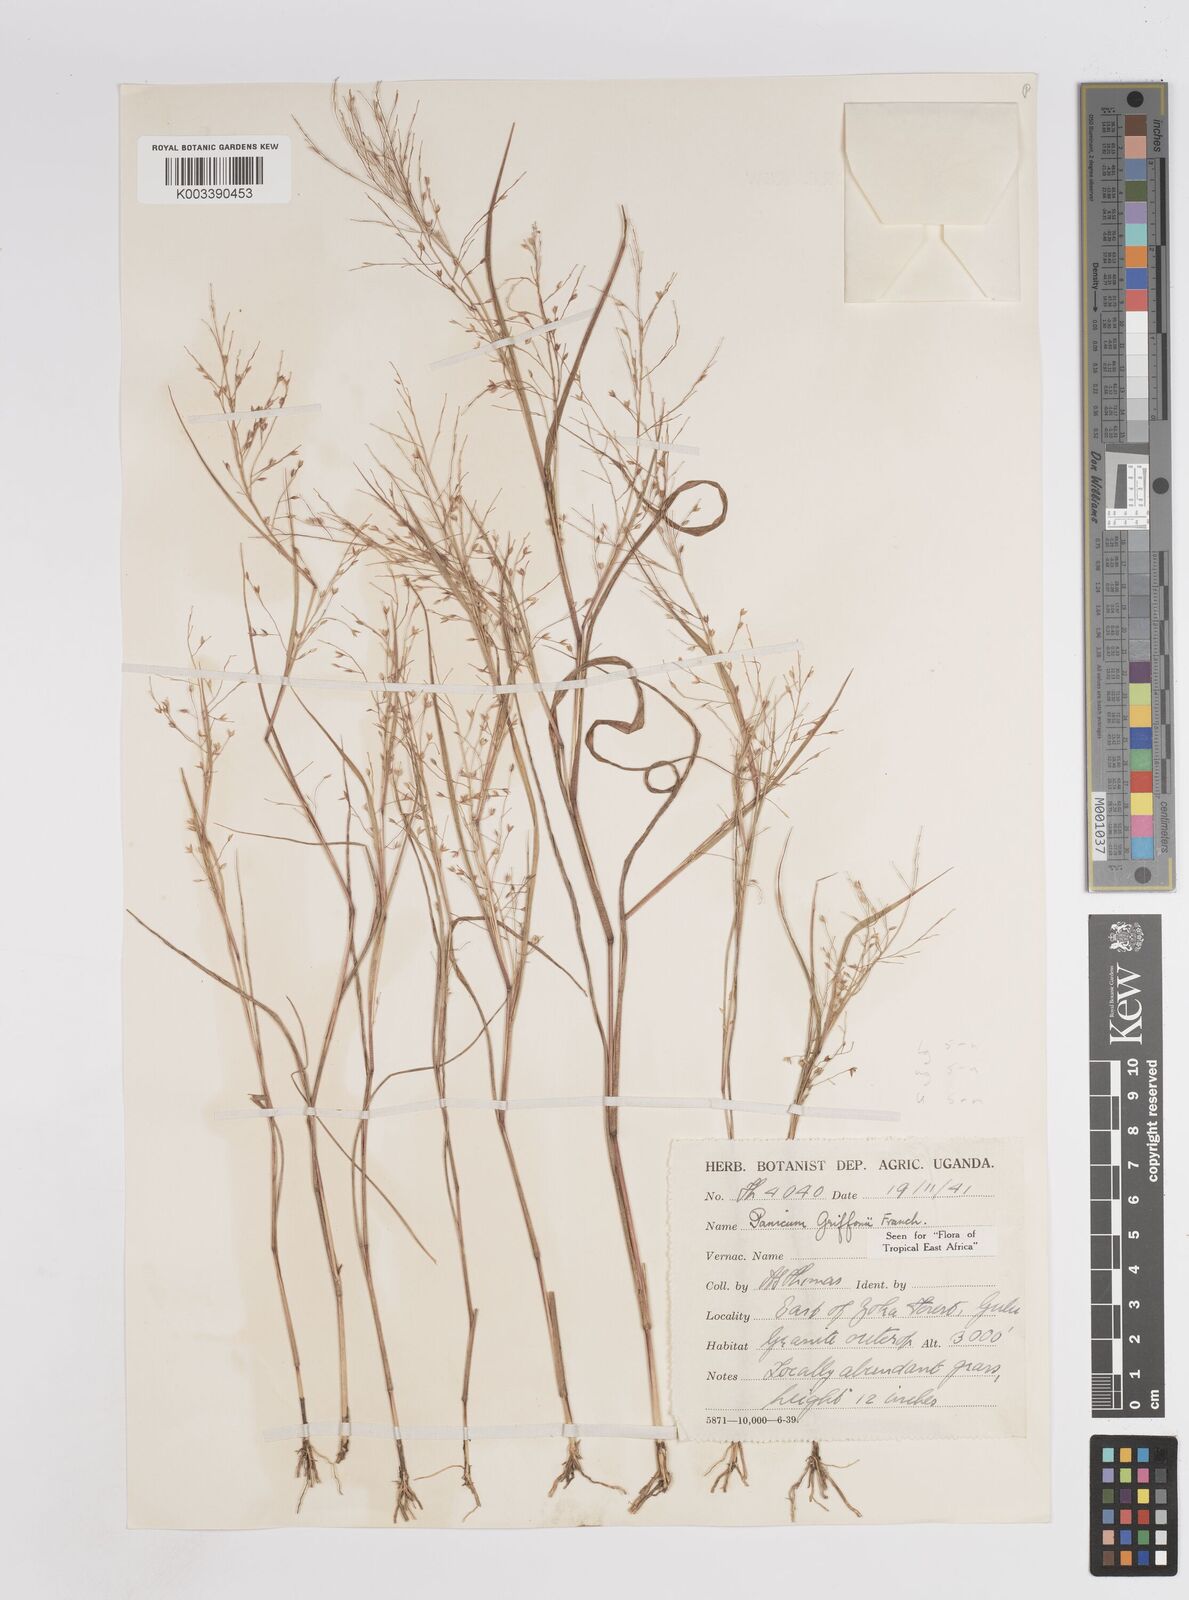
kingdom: Plantae
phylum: Tracheophyta
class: Liliopsida
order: Poales
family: Poaceae
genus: Panicum
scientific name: Panicum griffonii
